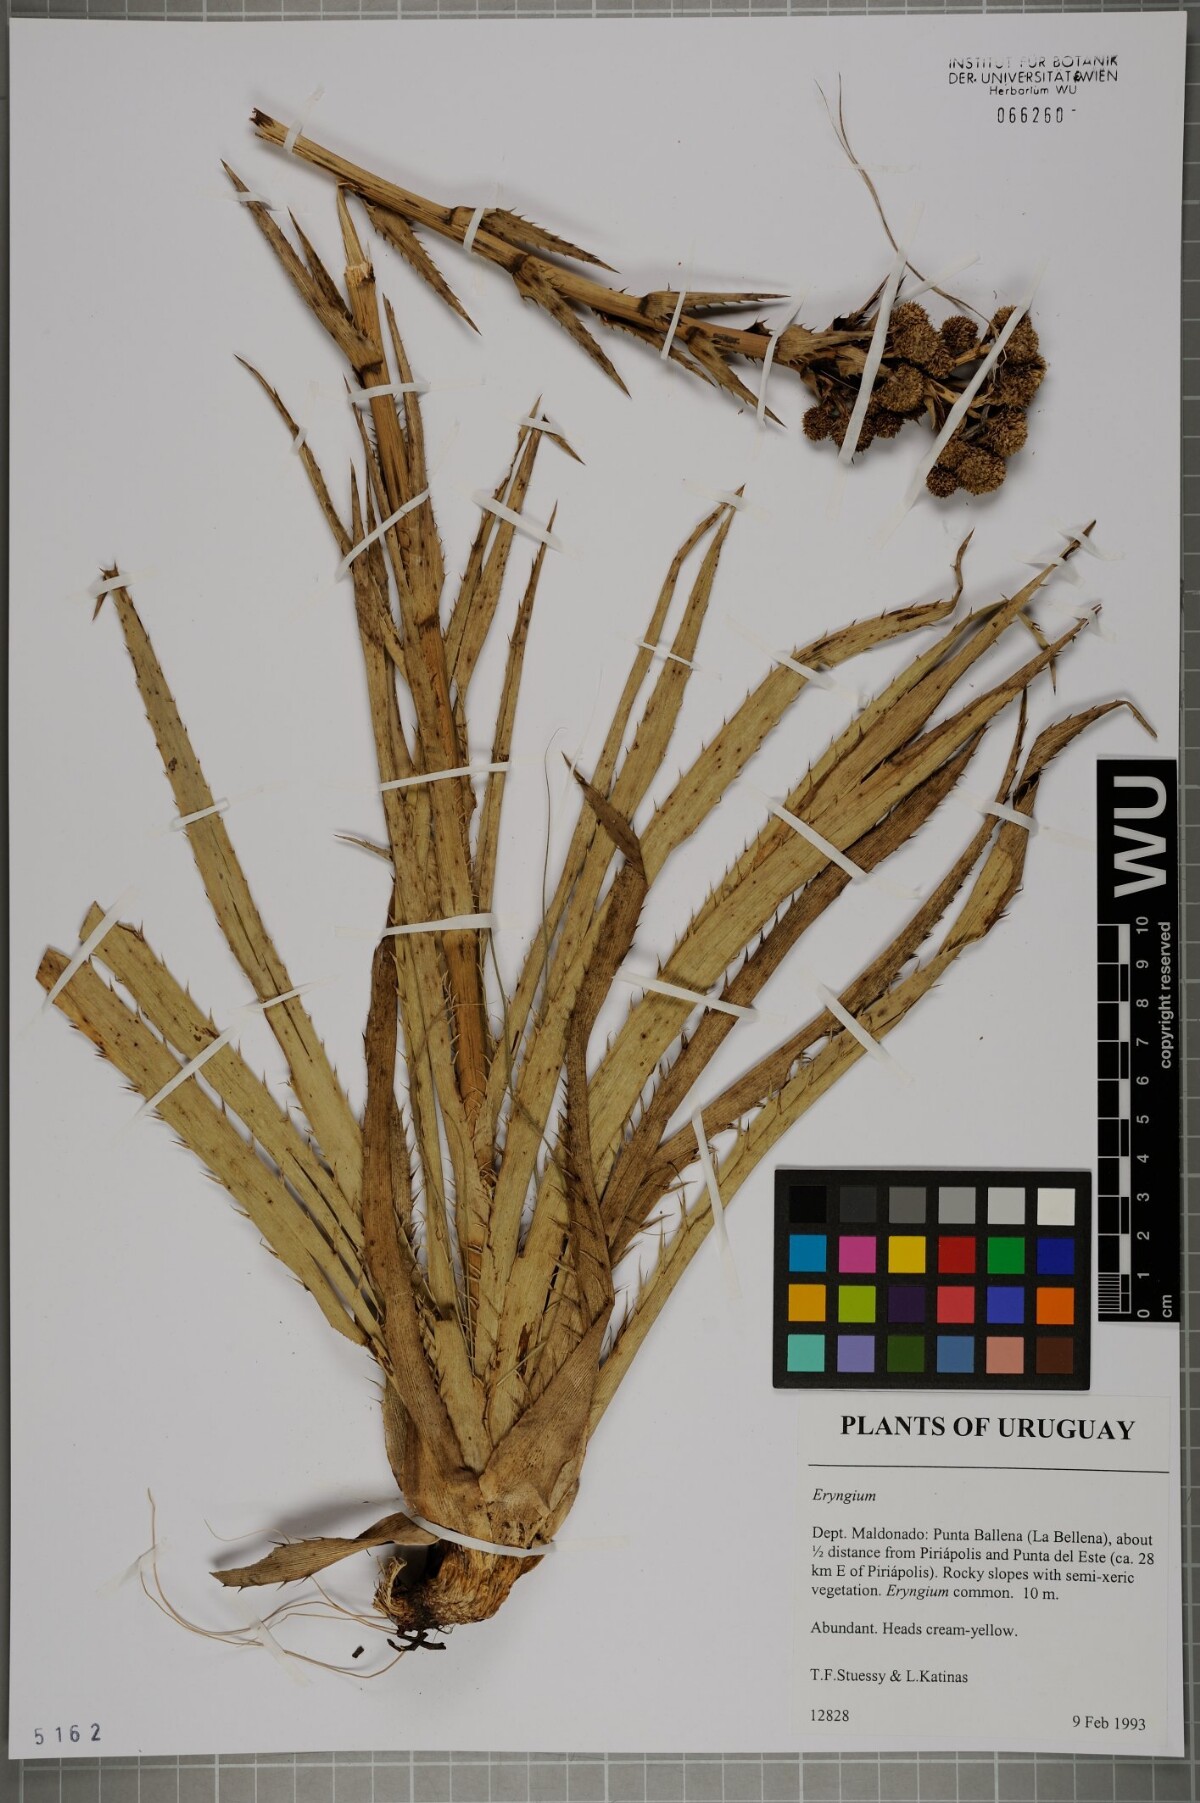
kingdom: Plantae
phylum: Tracheophyta
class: Magnoliopsida
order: Apiales
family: Apiaceae
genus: Eryngium
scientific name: Eryngium
